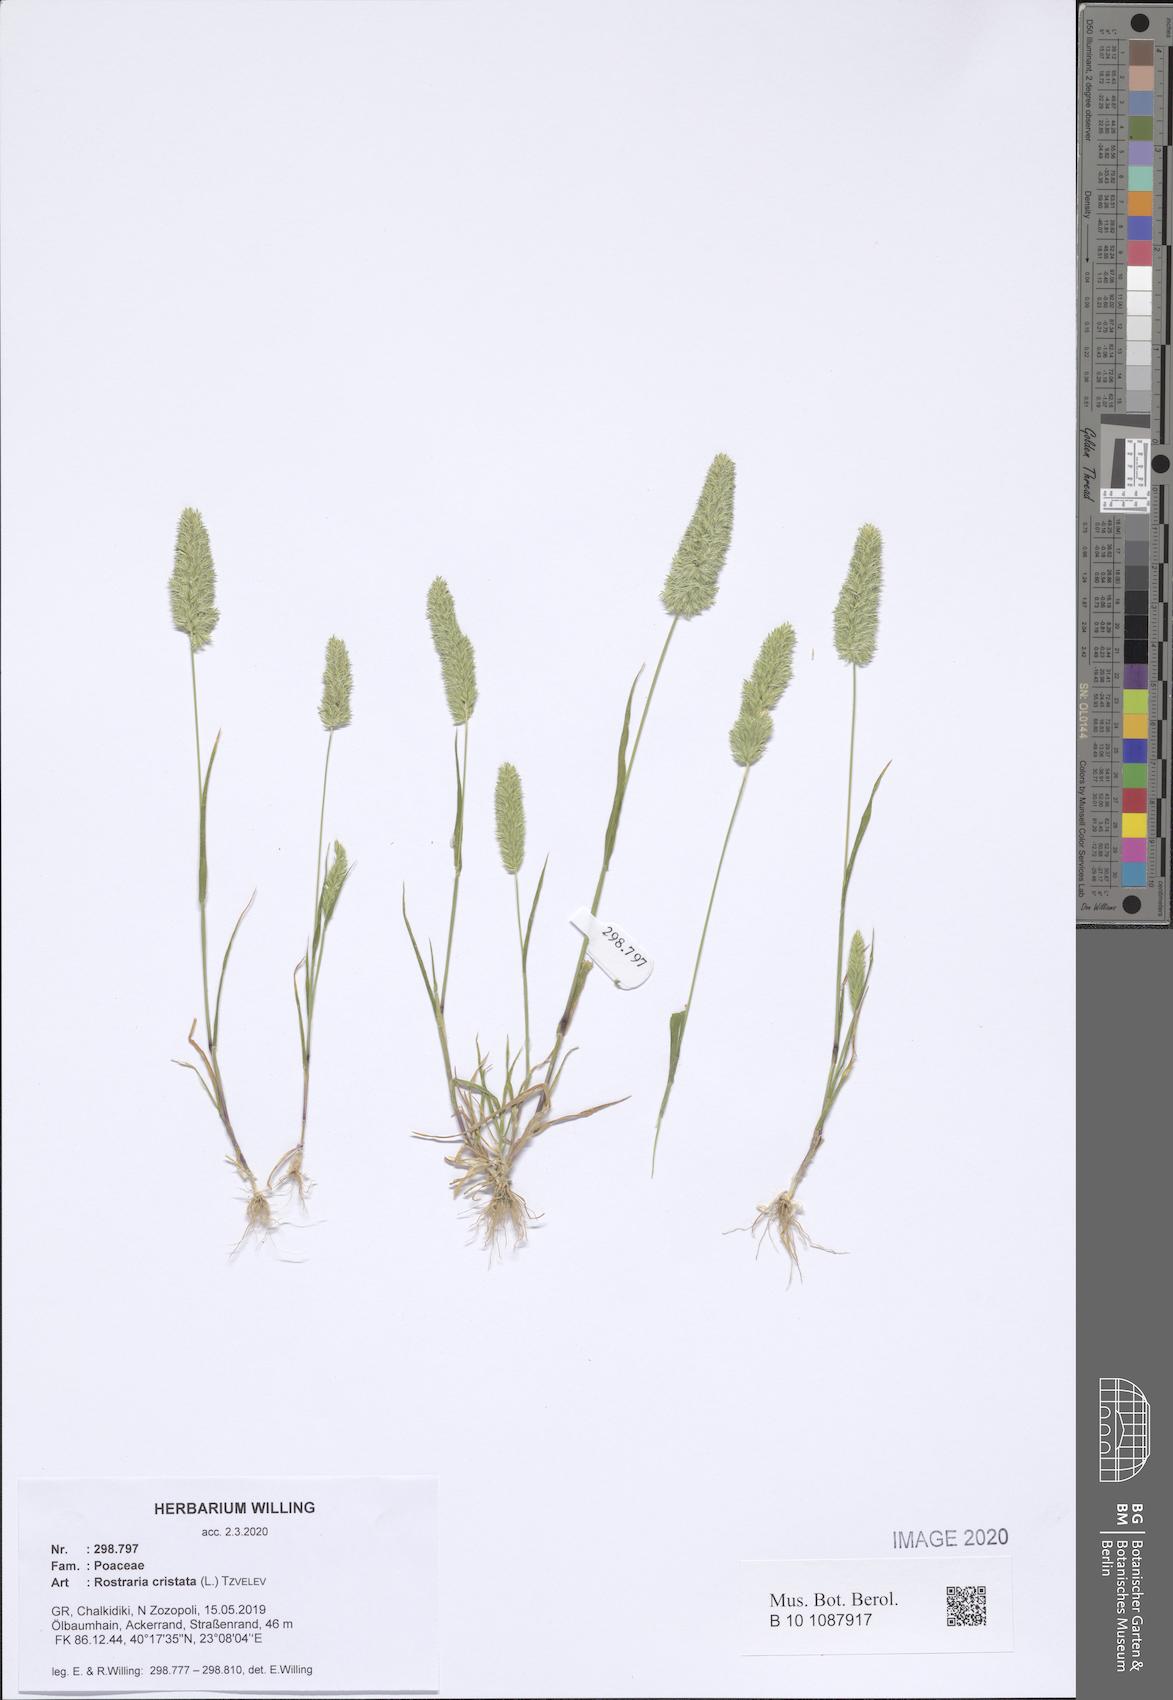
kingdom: Plantae
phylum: Tracheophyta
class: Liliopsida
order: Poales
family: Poaceae
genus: Rostraria
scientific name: Rostraria cristata
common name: Mediterranean hair-grass
